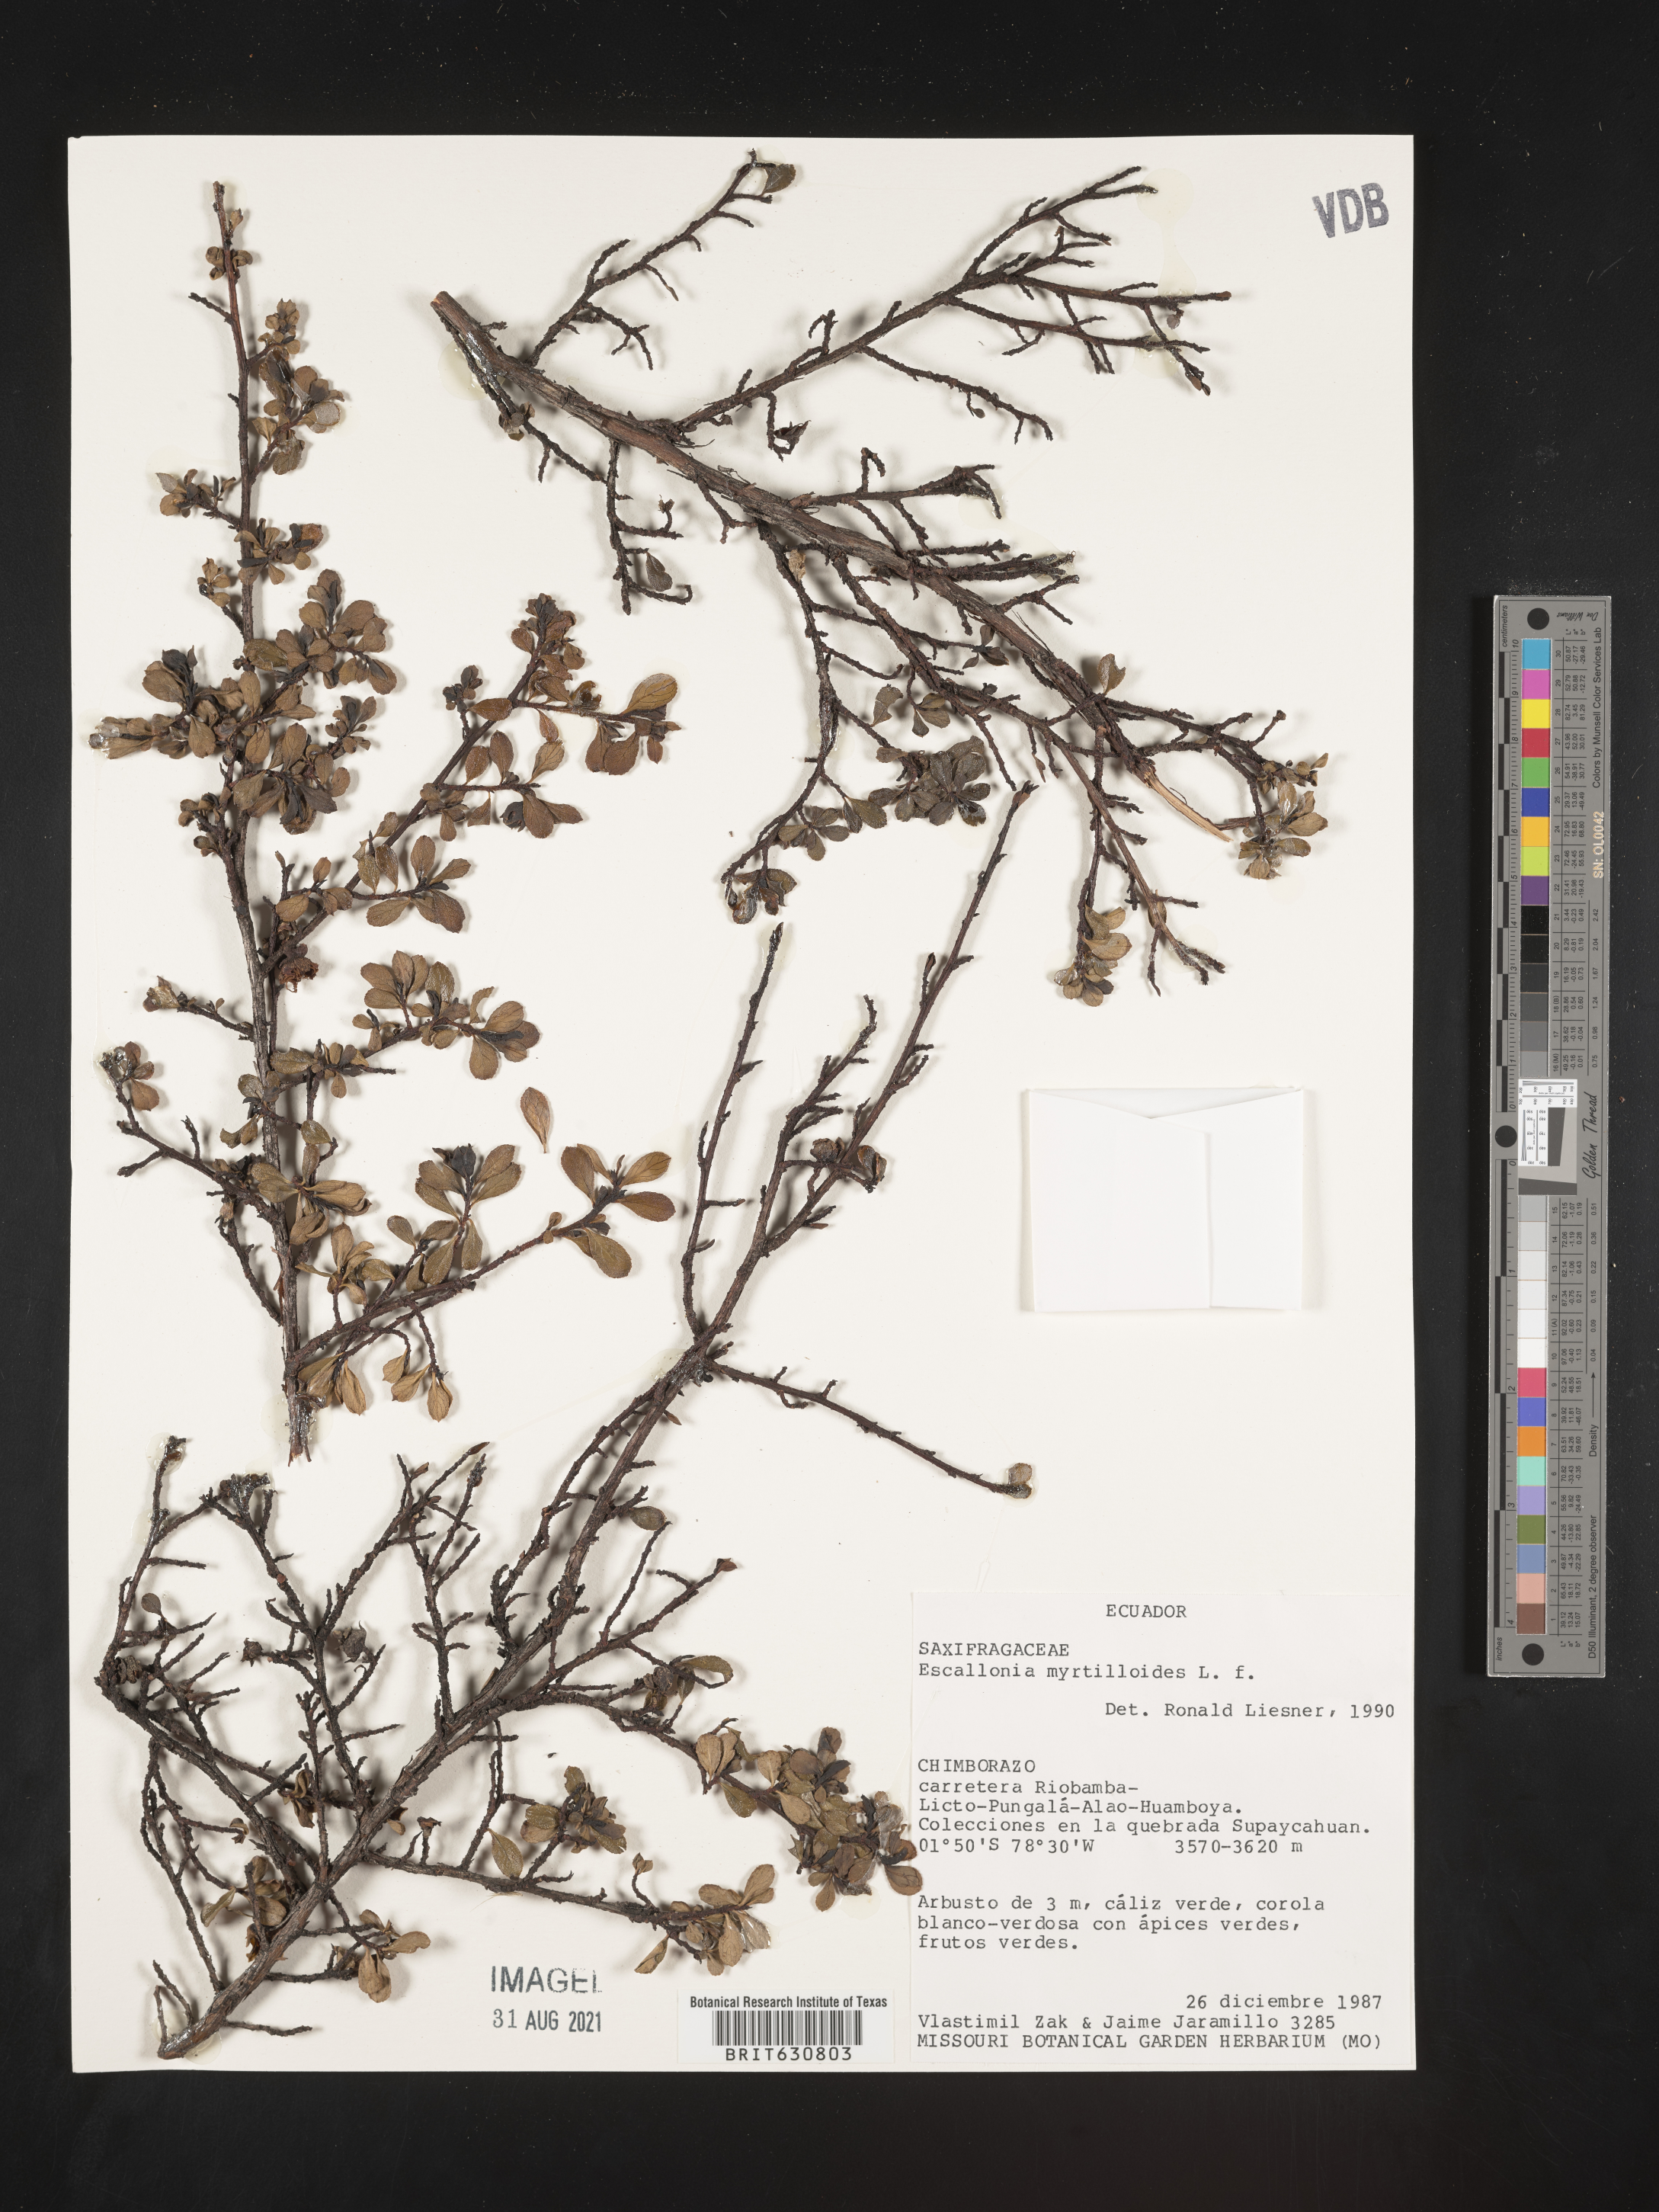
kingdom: Plantae
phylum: Tracheophyta
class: Magnoliopsida
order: Escalloniales
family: Escalloniaceae
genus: Escallonia
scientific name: Escallonia
